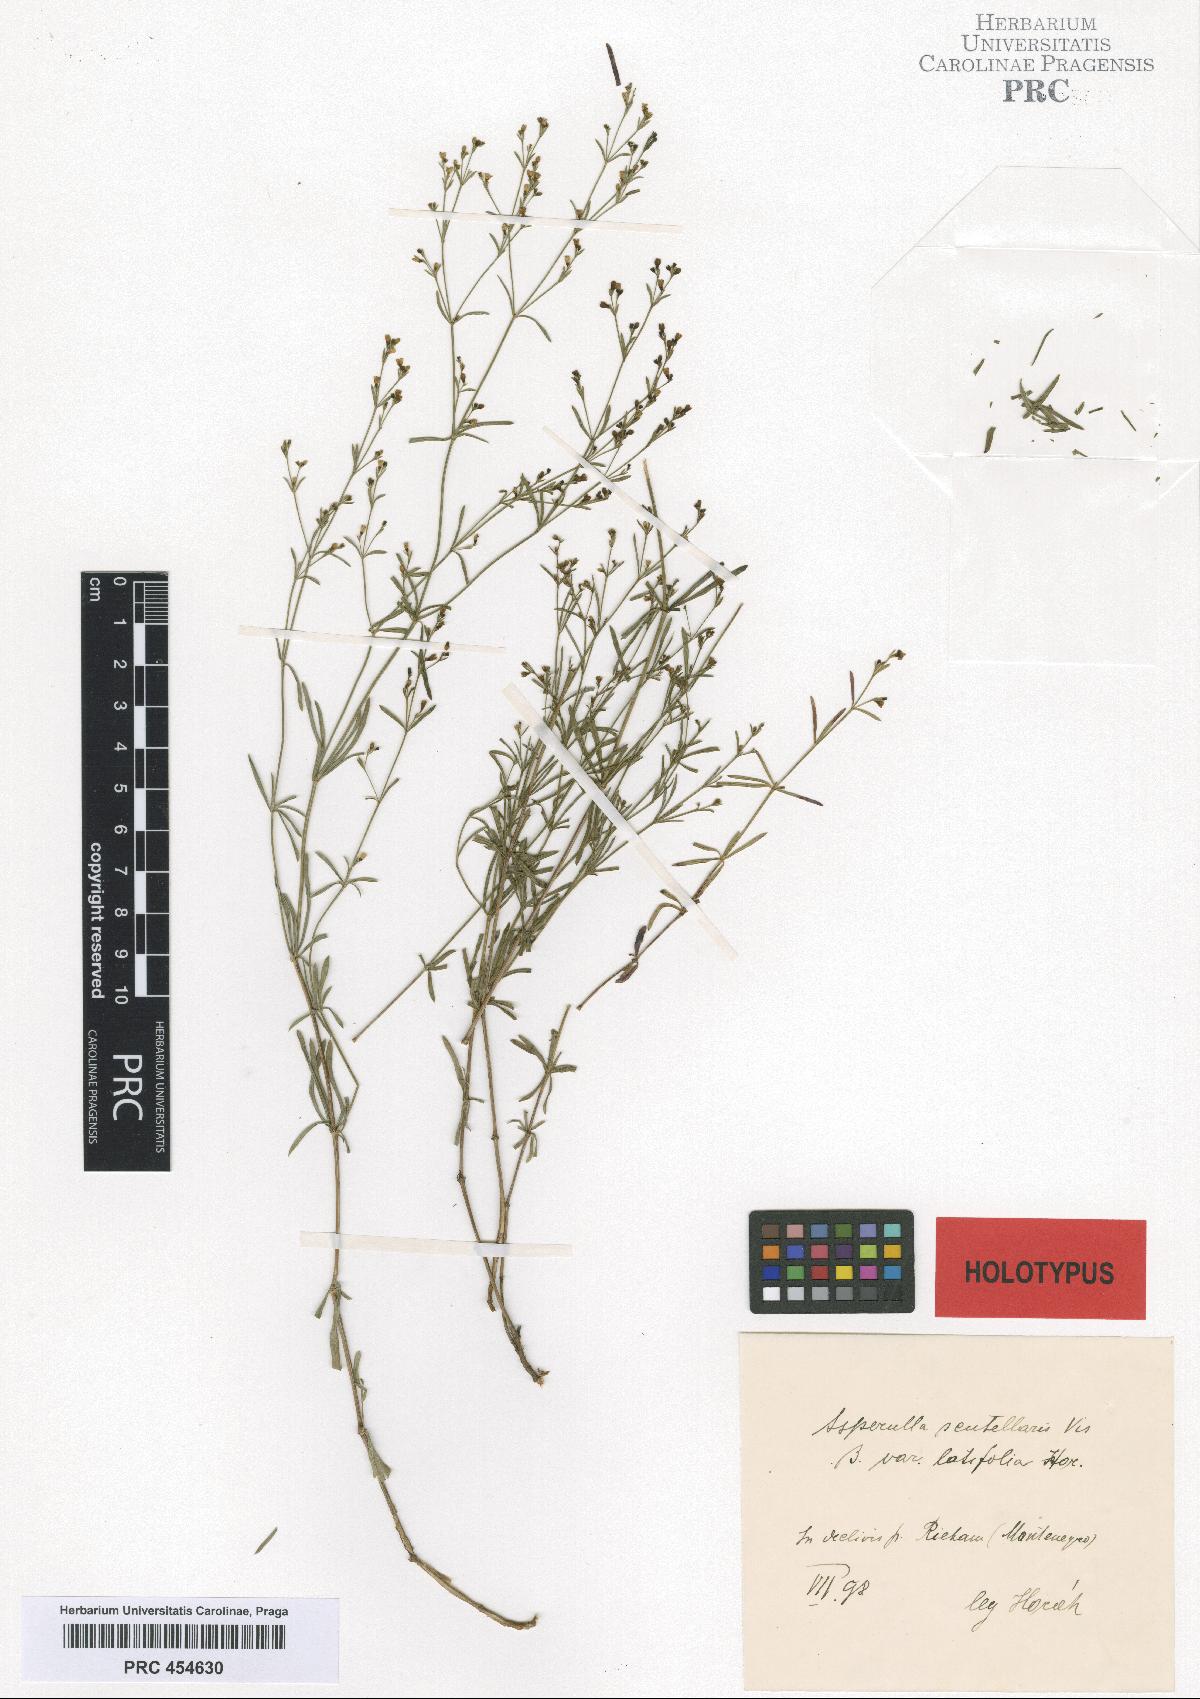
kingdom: Plantae
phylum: Tracheophyta
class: Magnoliopsida
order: Gentianales
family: Rubiaceae
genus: Thliphthisa
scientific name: Thliphthisa rupestris
